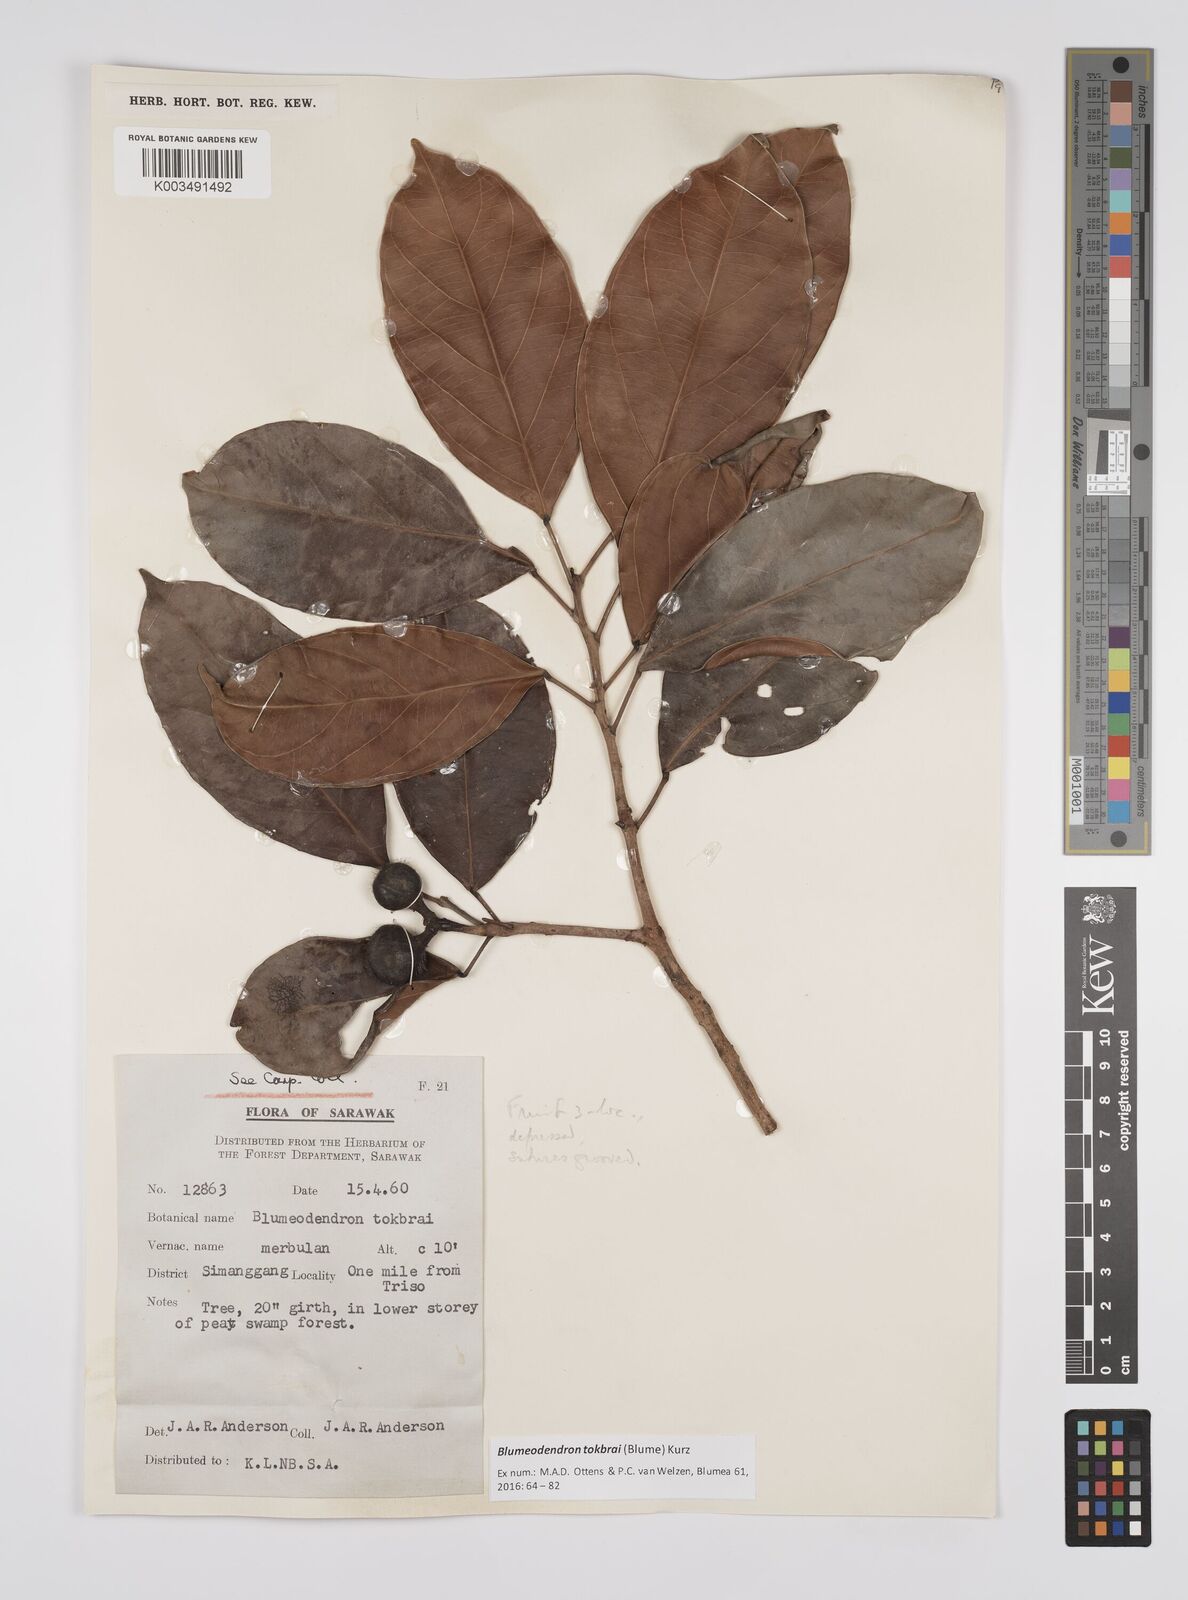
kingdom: Plantae
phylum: Tracheophyta
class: Magnoliopsida
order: Malpighiales
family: Euphorbiaceae
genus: Blumeodendron
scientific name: Blumeodendron tokbrai
